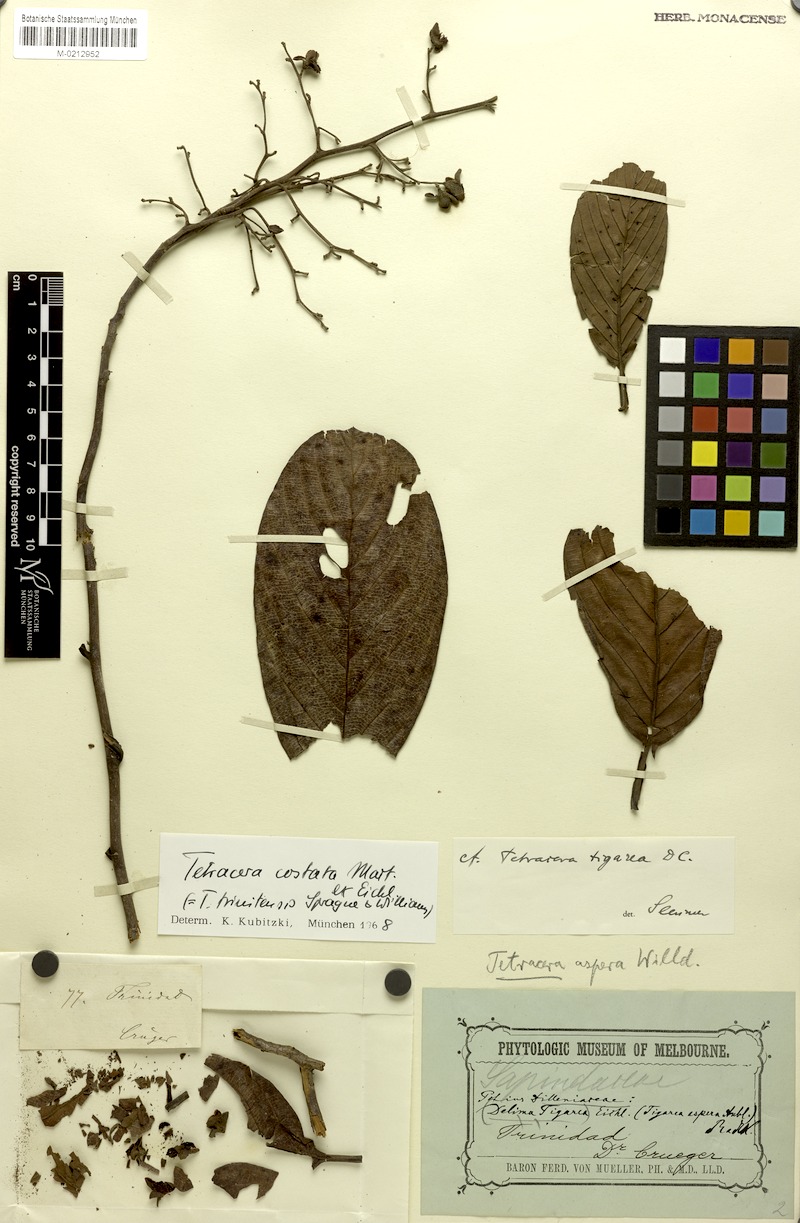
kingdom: Plantae
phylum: Tracheophyta
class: Magnoliopsida
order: Dilleniales
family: Dilleniaceae
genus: Tetracera
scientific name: Tetracera costata
